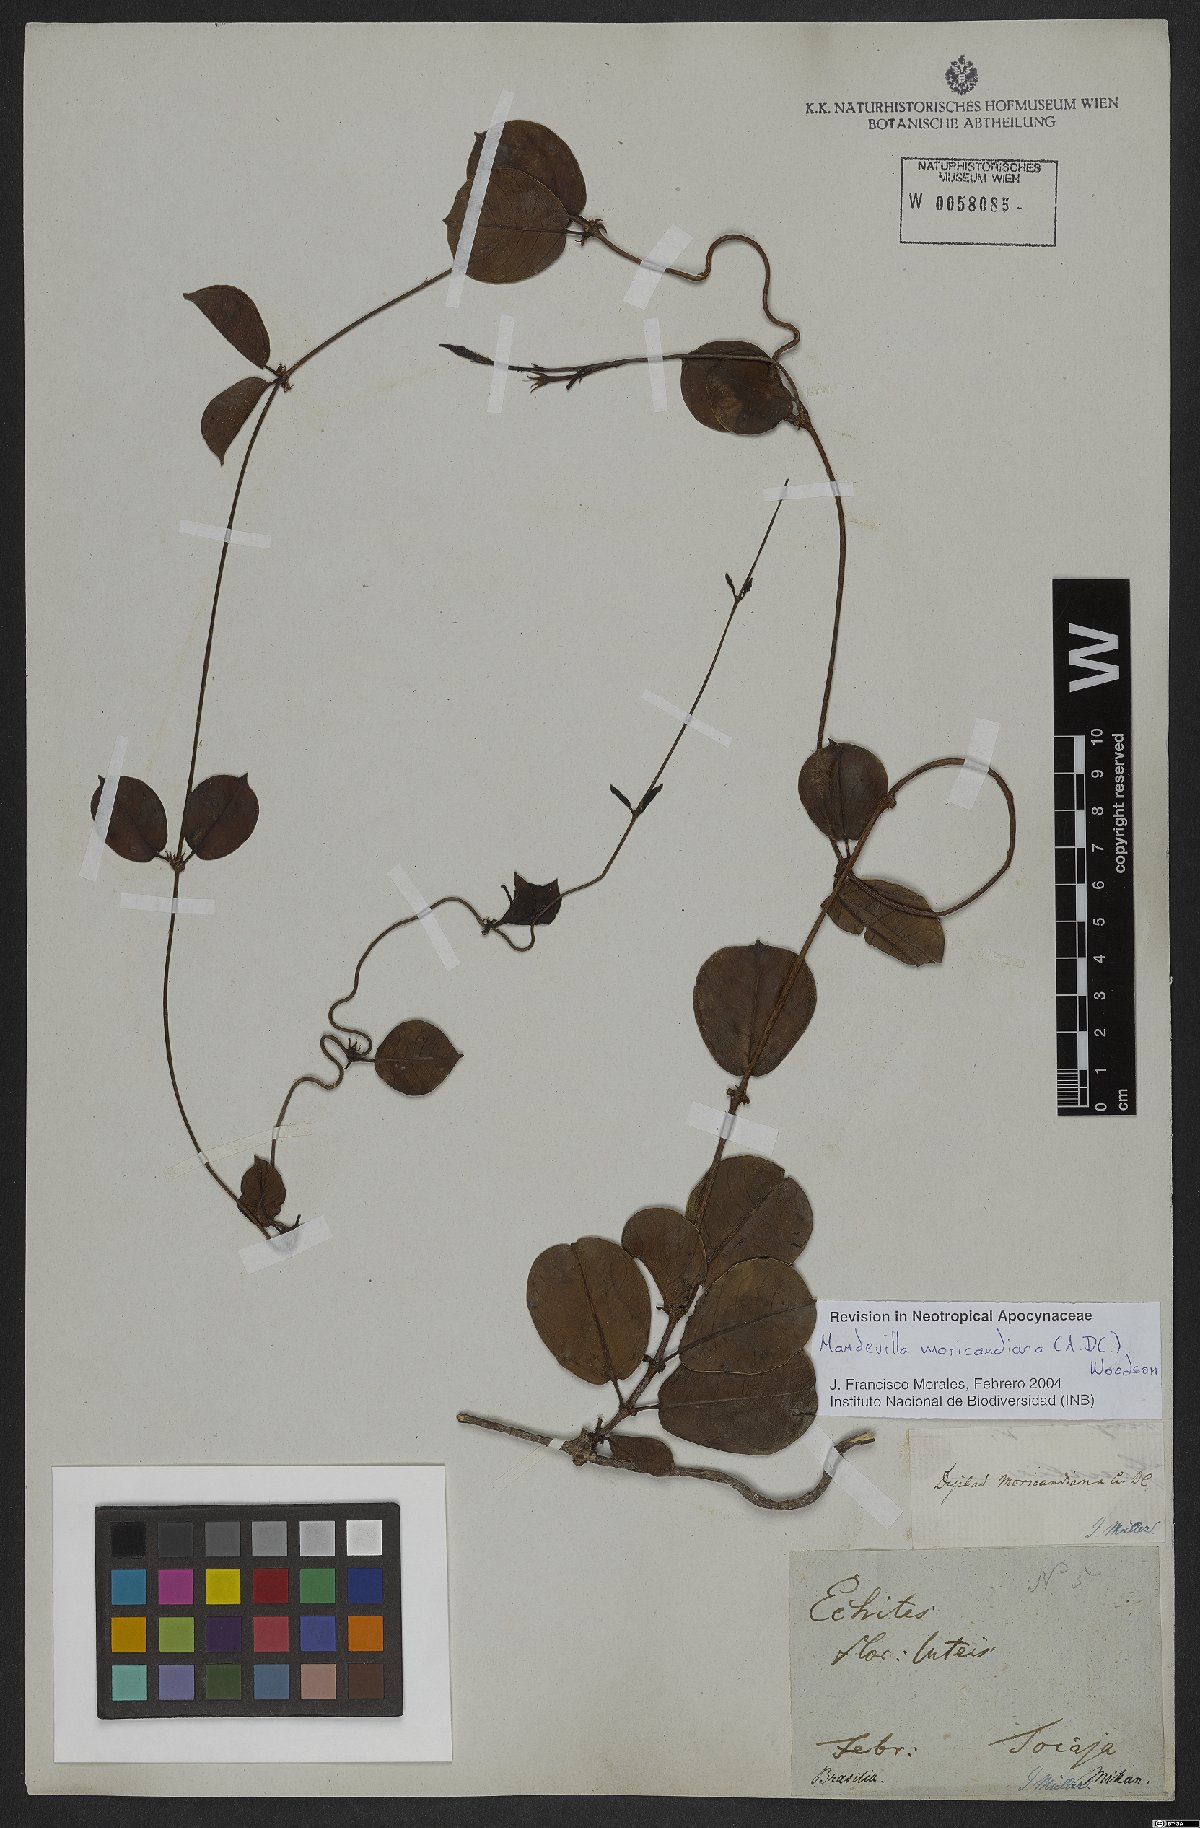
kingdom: Plantae
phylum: Tracheophyta
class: Magnoliopsida
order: Gentianales
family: Apocynaceae
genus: Mandevilla
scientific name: Mandevilla moricandiana
